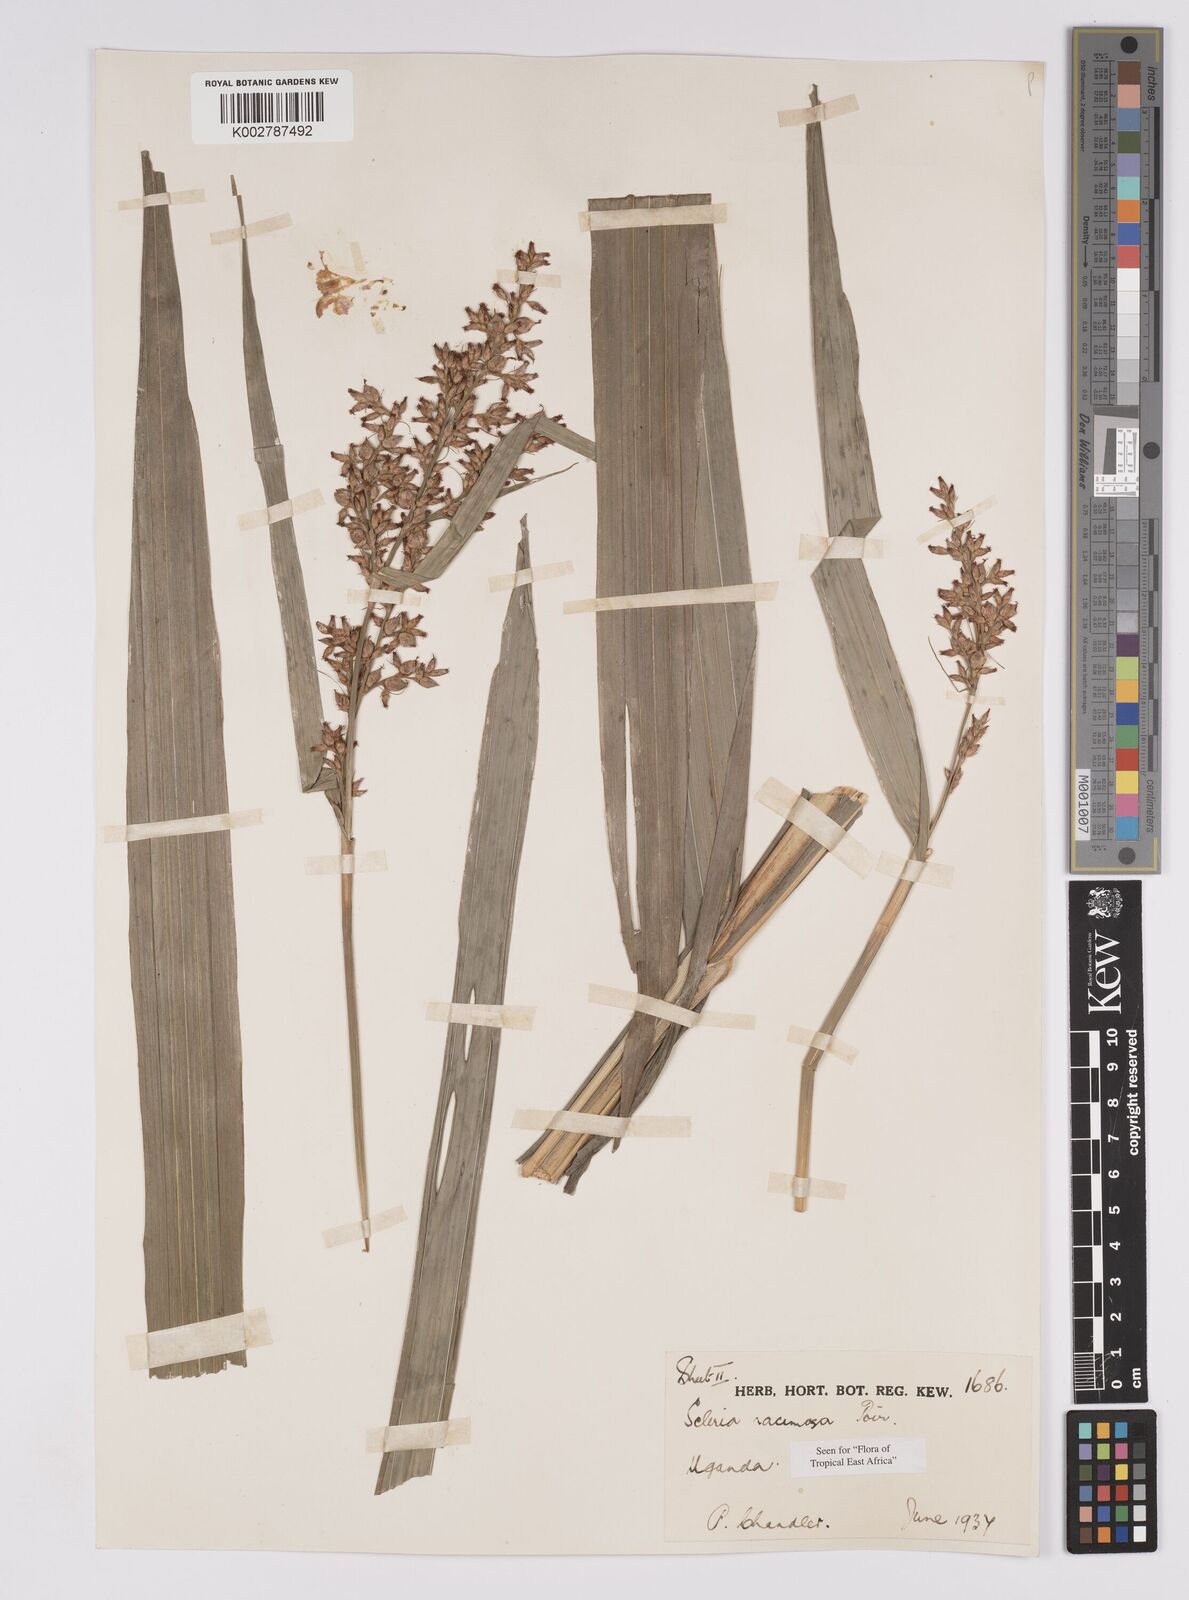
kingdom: Plantae
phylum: Tracheophyta
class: Liliopsida
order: Poales
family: Cyperaceae
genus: Scleria
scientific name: Scleria racemosa
